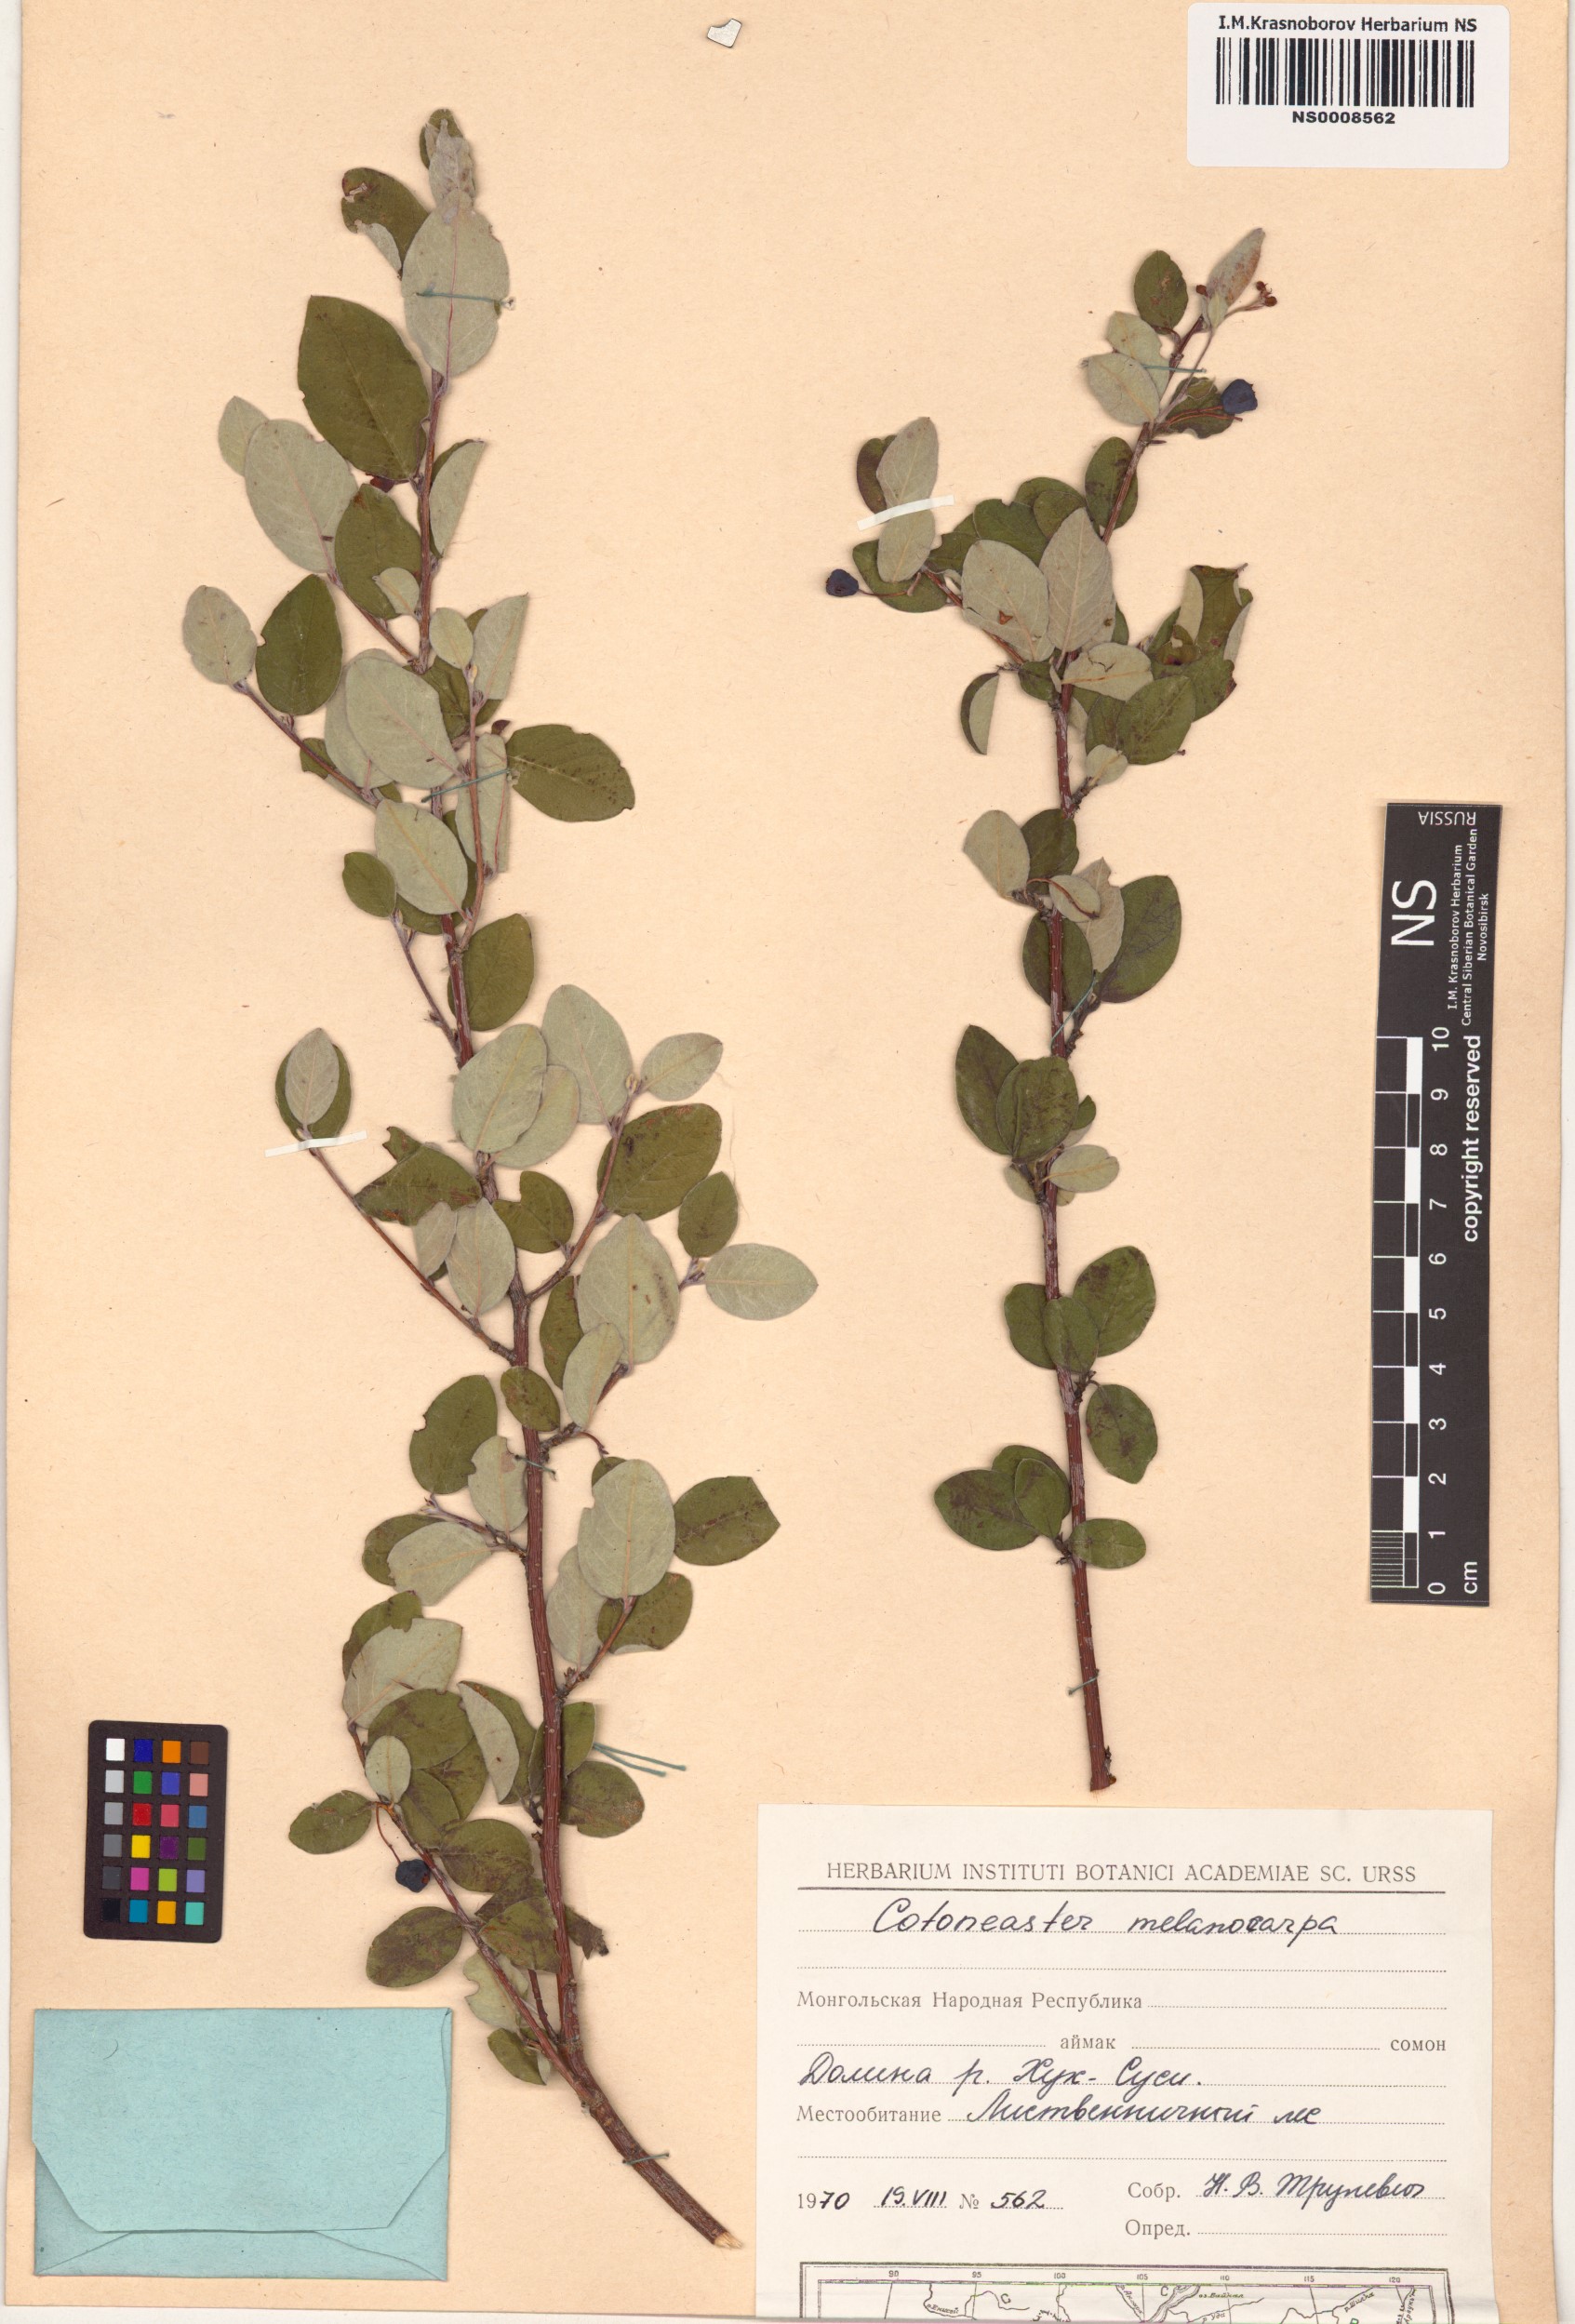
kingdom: Plantae
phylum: Tracheophyta
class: Magnoliopsida
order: Rosales
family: Rosaceae
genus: Cotoneaster
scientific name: Cotoneaster melanocarpus
